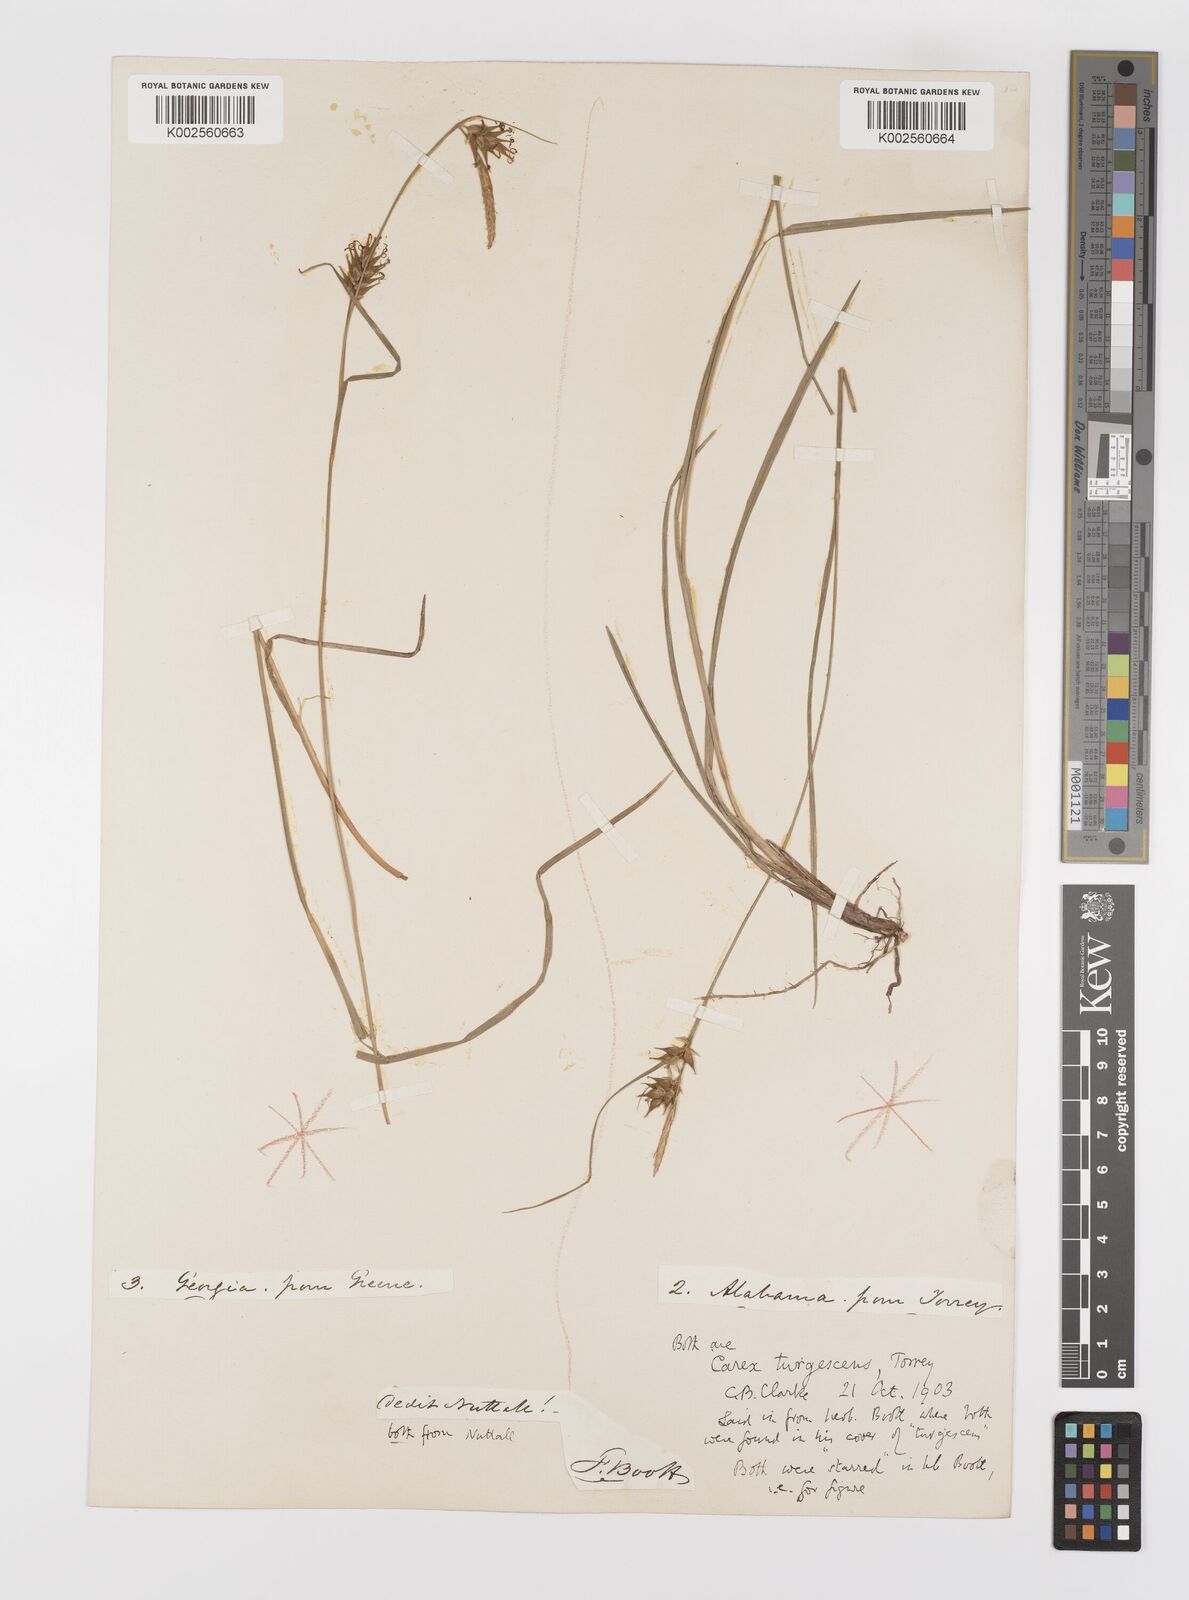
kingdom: Plantae
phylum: Tracheophyta
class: Liliopsida
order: Poales
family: Cyperaceae
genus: Carex
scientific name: Carex turgescens
